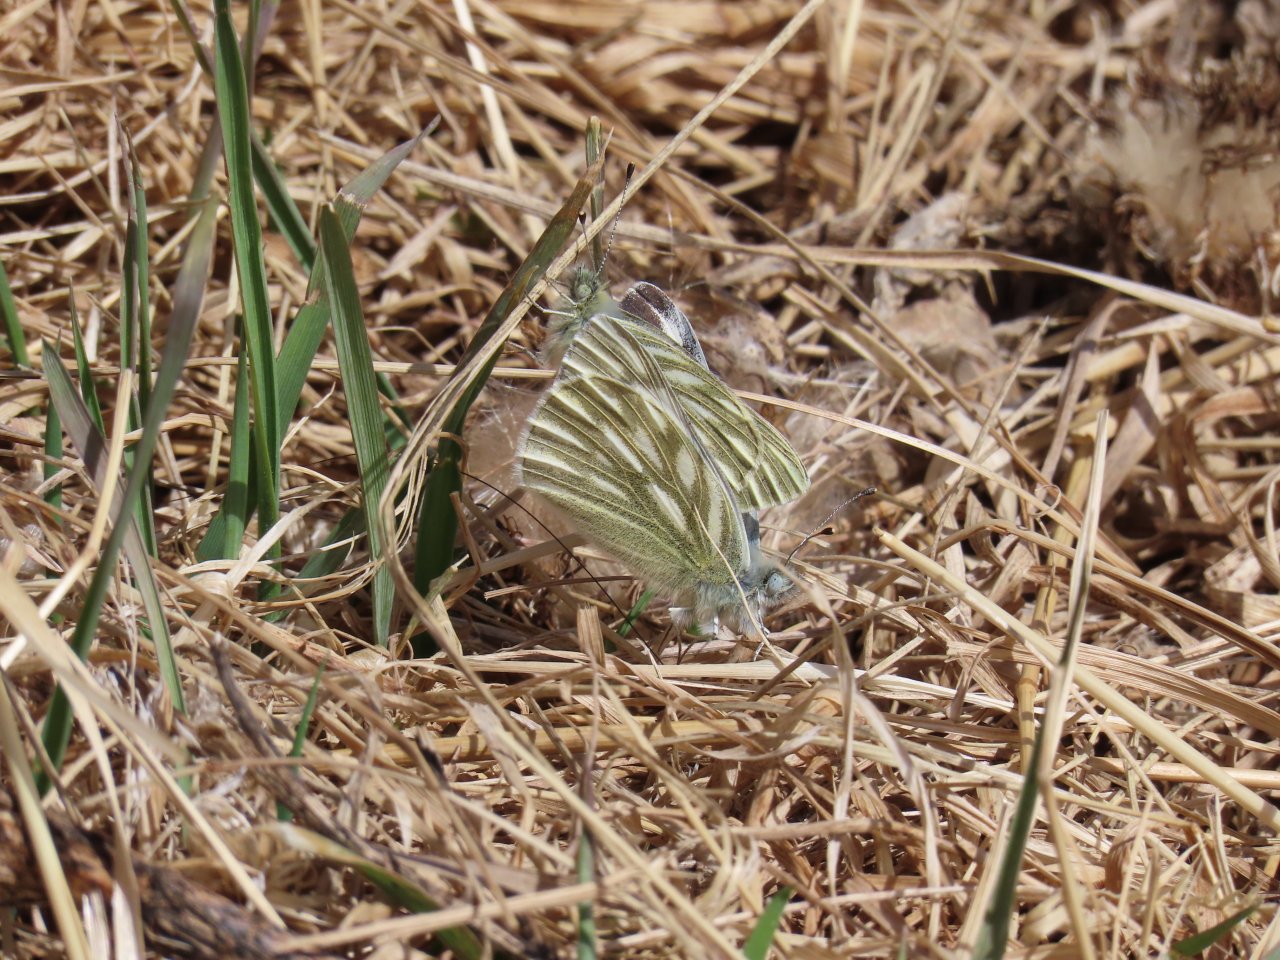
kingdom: Animalia
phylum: Arthropoda
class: Insecta
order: Lepidoptera
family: Pieridae
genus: Pontia
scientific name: Pontia occidentalis
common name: Western White
